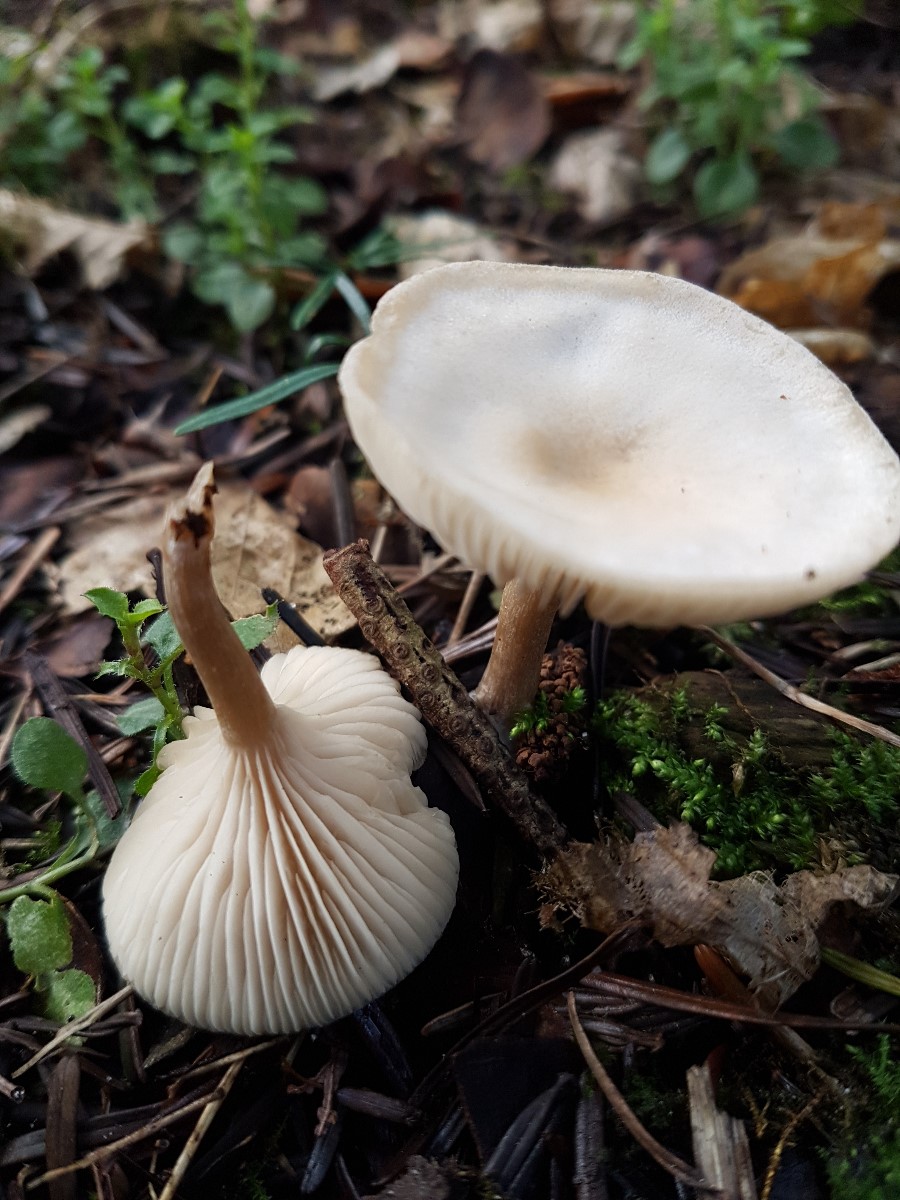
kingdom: Fungi
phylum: Basidiomycota
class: Agaricomycetes
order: Agaricales
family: Tricholomataceae
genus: Clitocybe
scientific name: Clitocybe fragrans
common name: vellugtende tragthat
